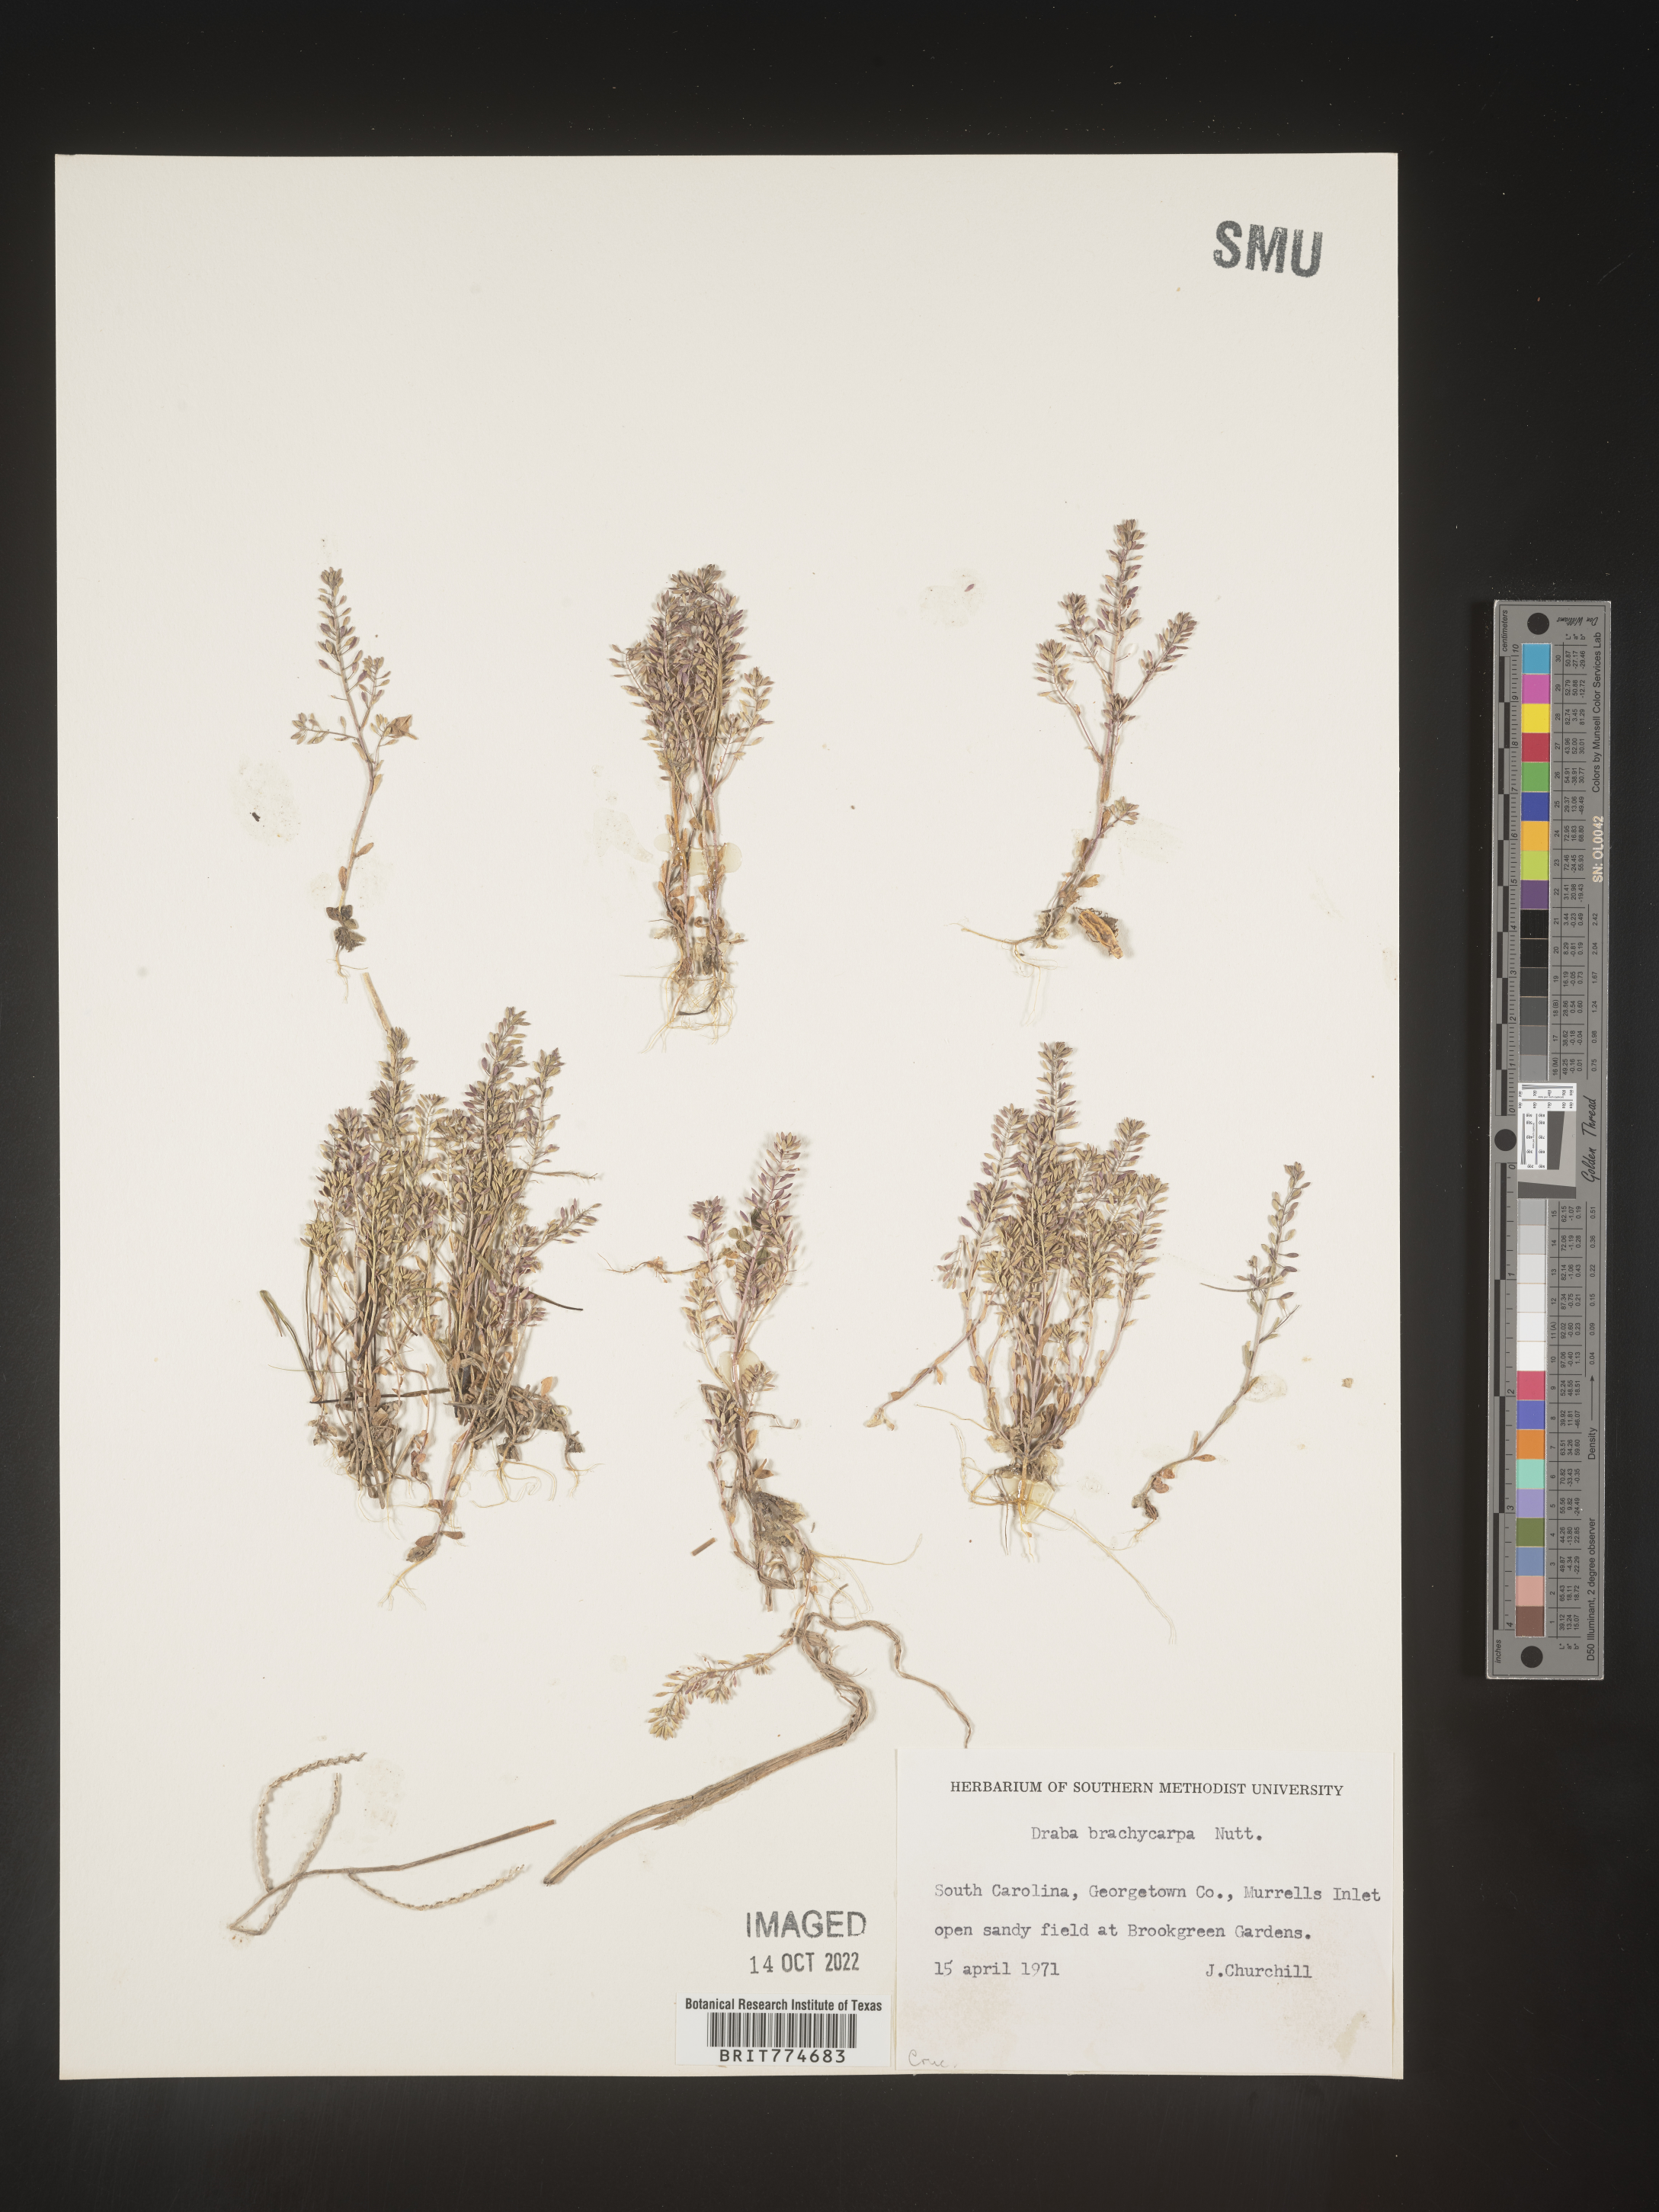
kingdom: Plantae
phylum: Tracheophyta
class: Magnoliopsida
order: Brassicales
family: Brassicaceae
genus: Abdra
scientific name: Abdra brachycarpa
